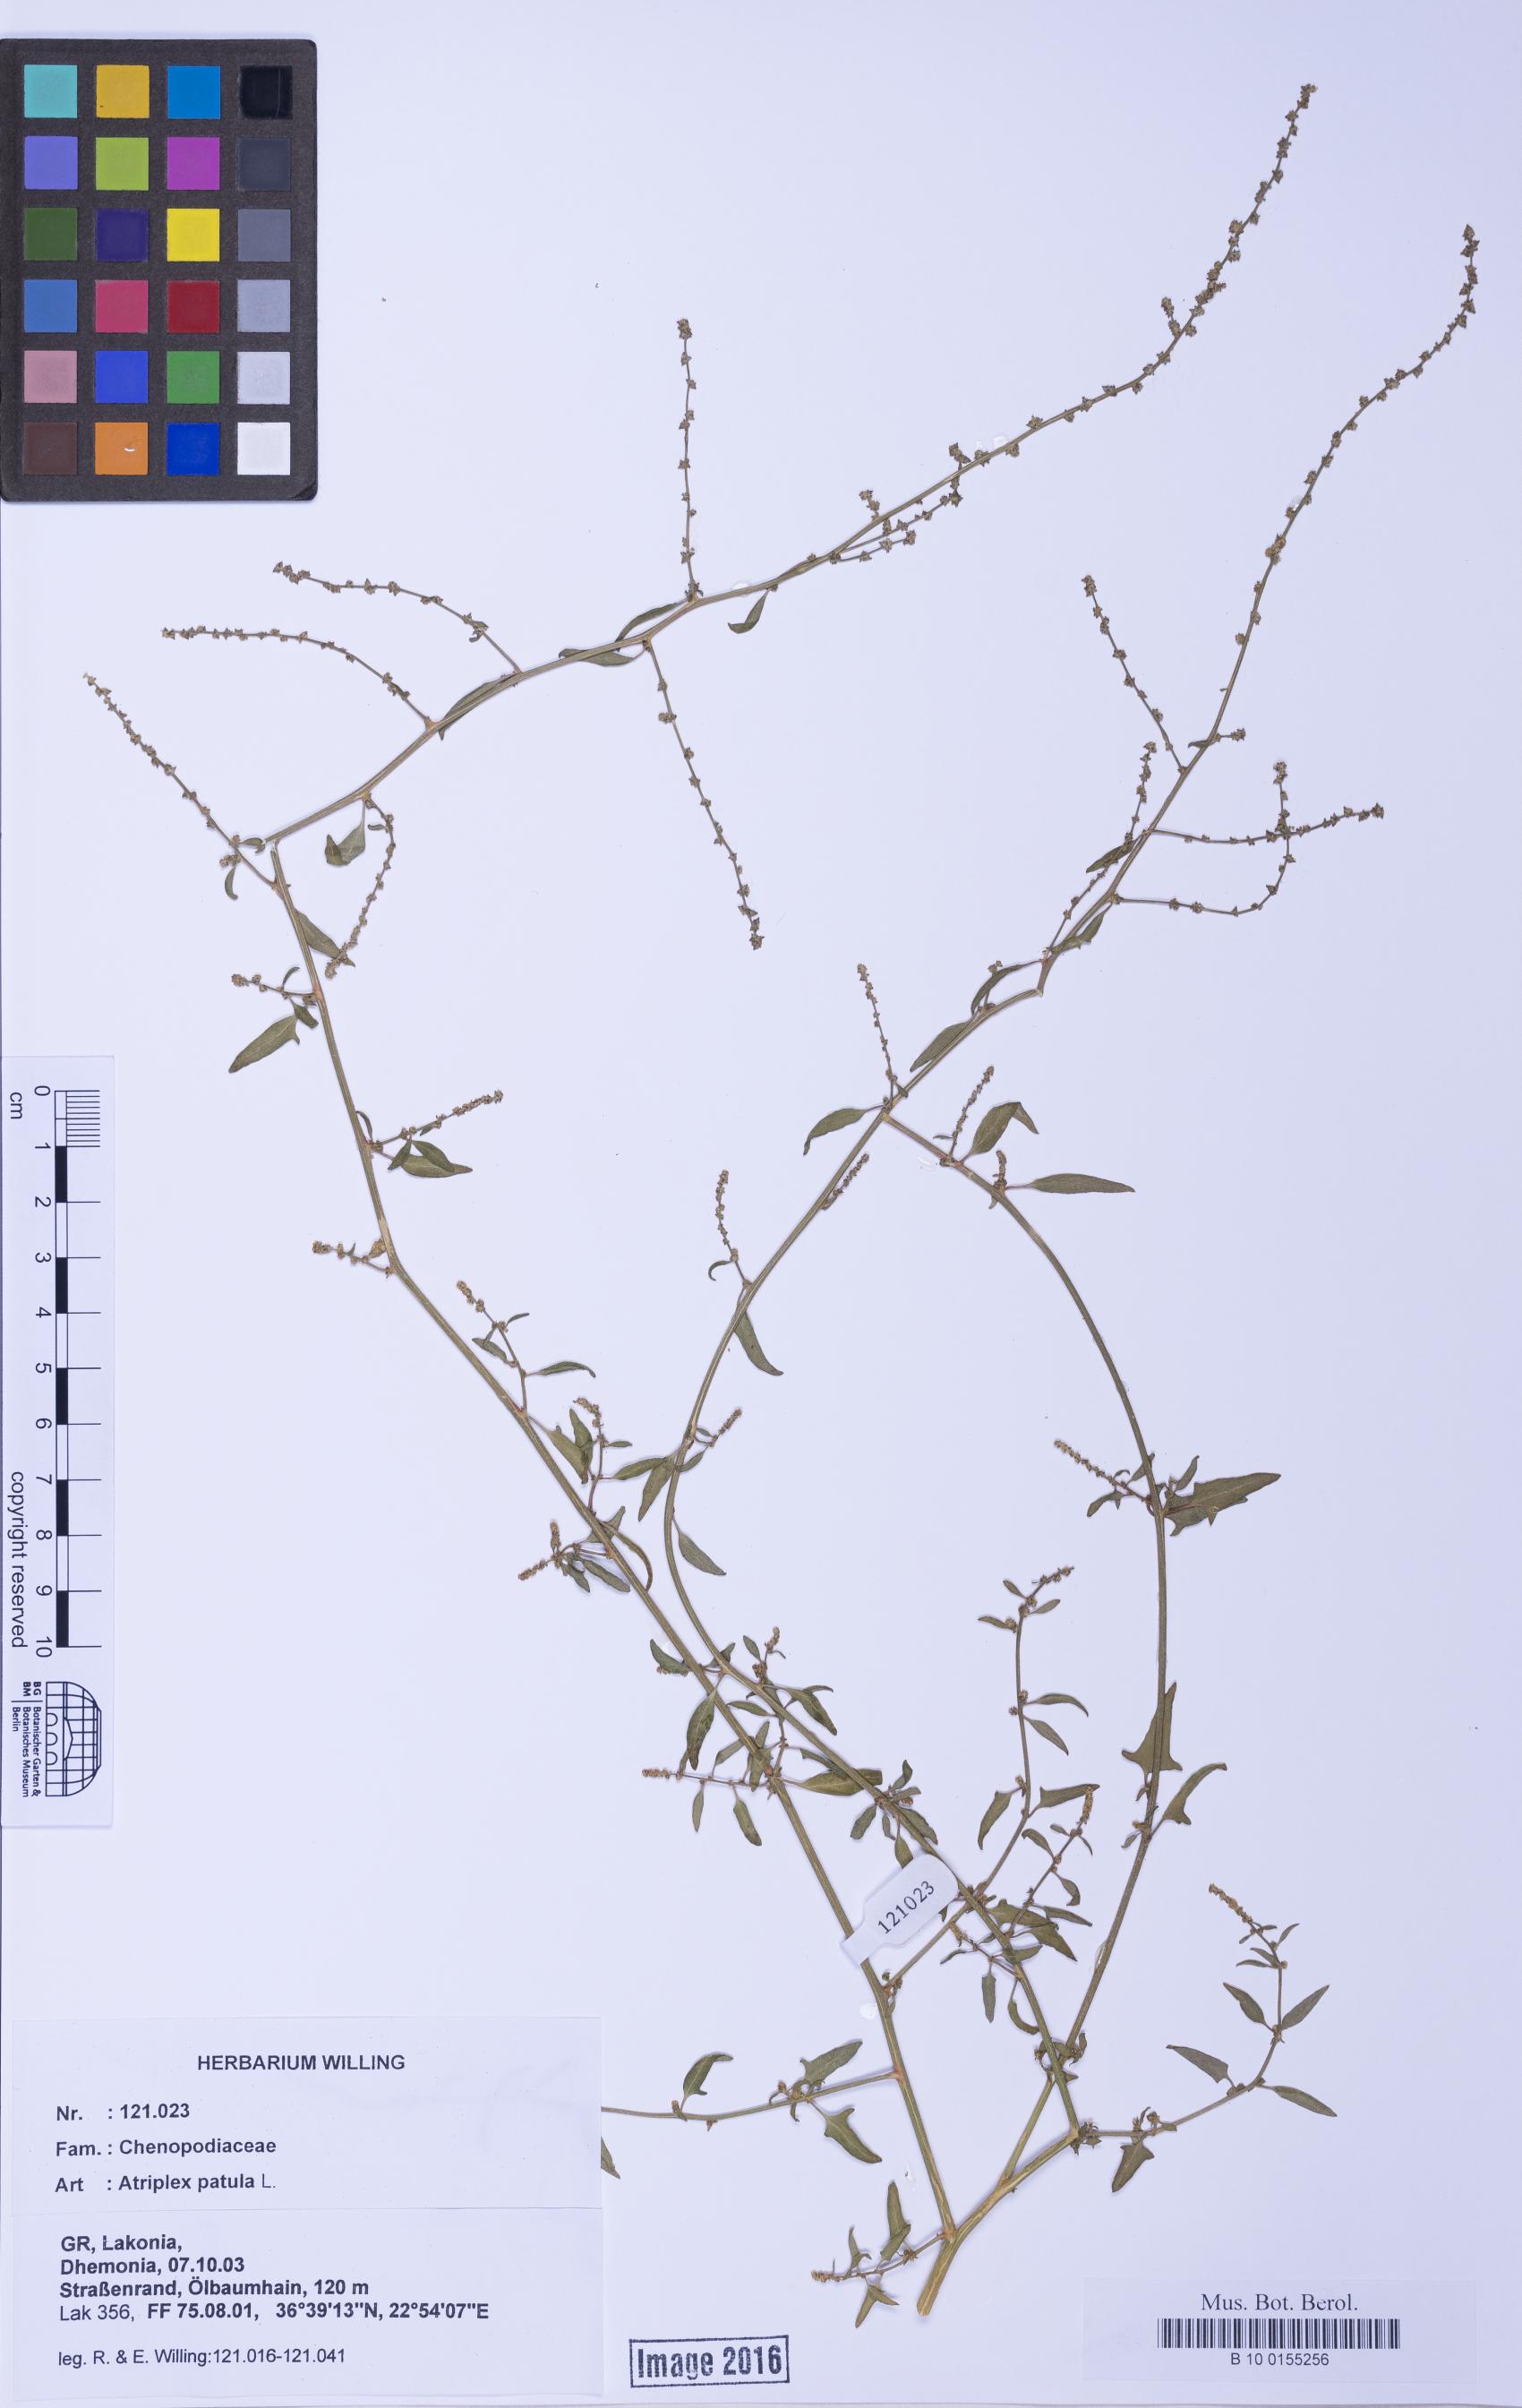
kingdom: Plantae
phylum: Tracheophyta
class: Magnoliopsida
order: Caryophyllales
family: Amaranthaceae
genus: Atriplex
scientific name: Atriplex prostrata
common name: Spear-leaved orache
